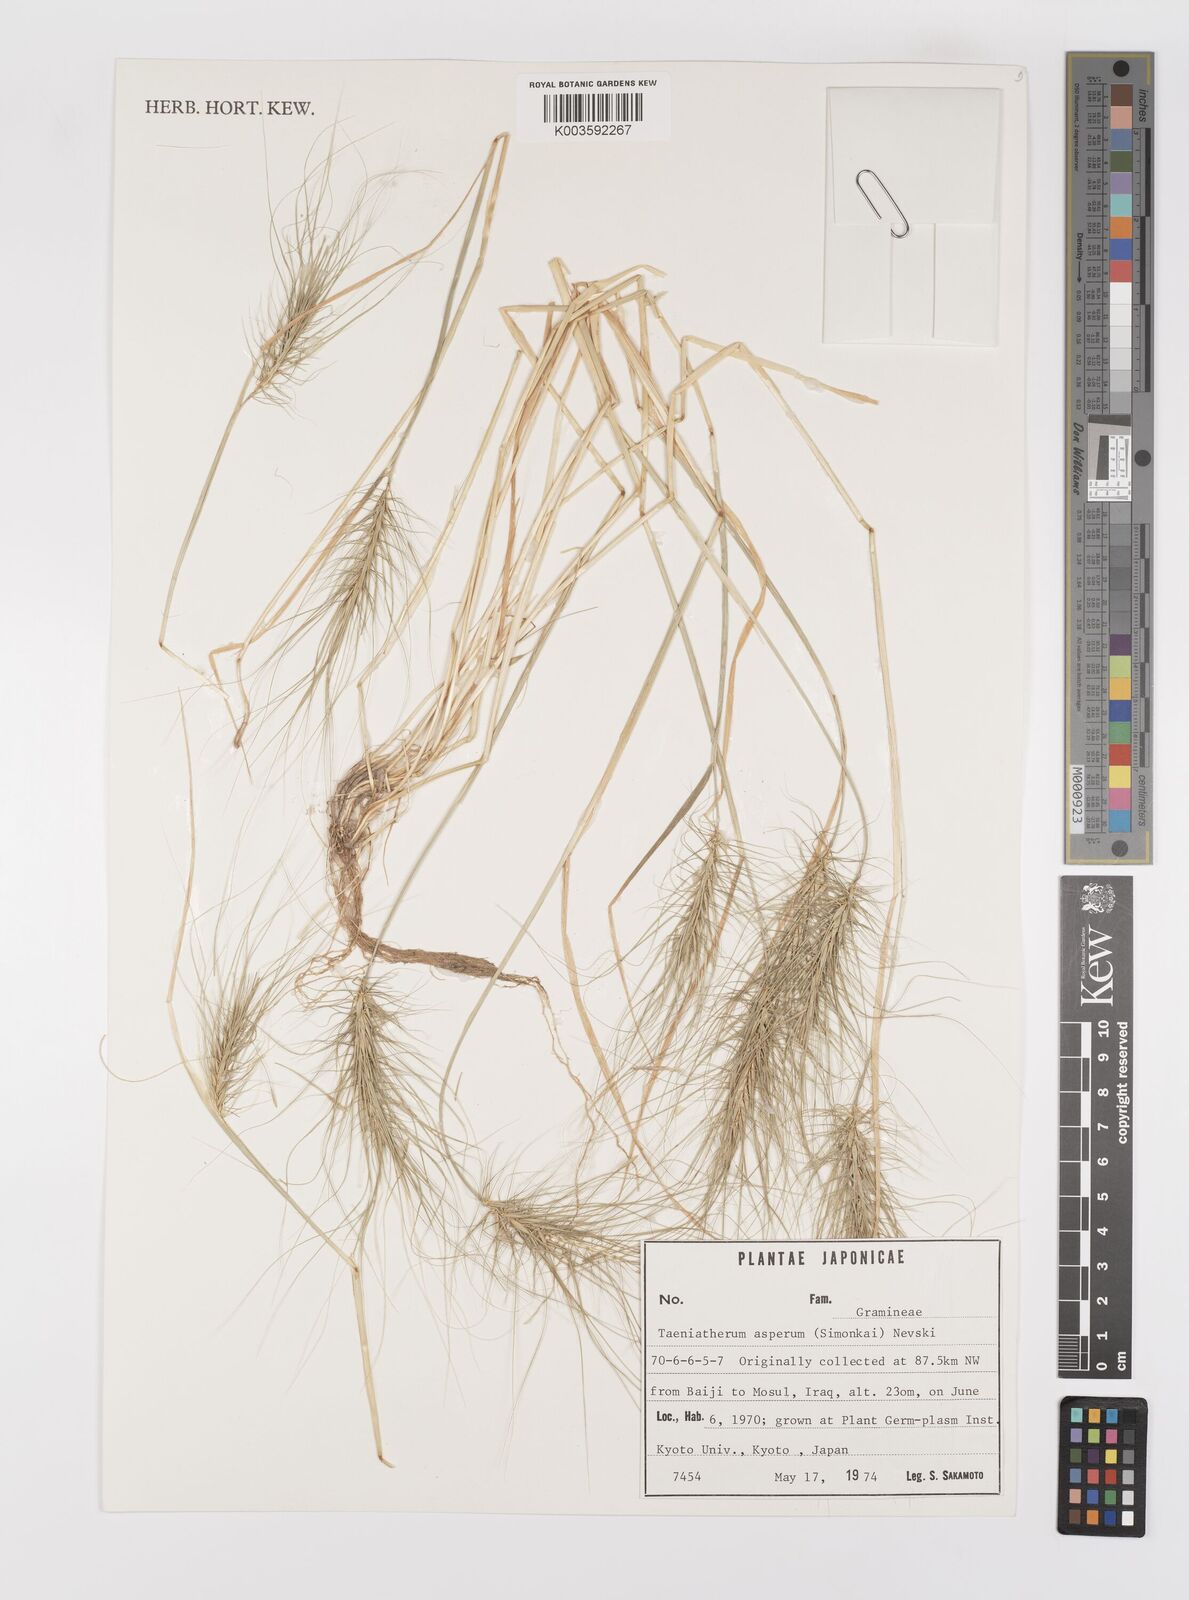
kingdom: Plantae
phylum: Tracheophyta
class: Liliopsida
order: Poales
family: Poaceae
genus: Taeniatherum
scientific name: Taeniatherum caput-medusae
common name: Medusahead
